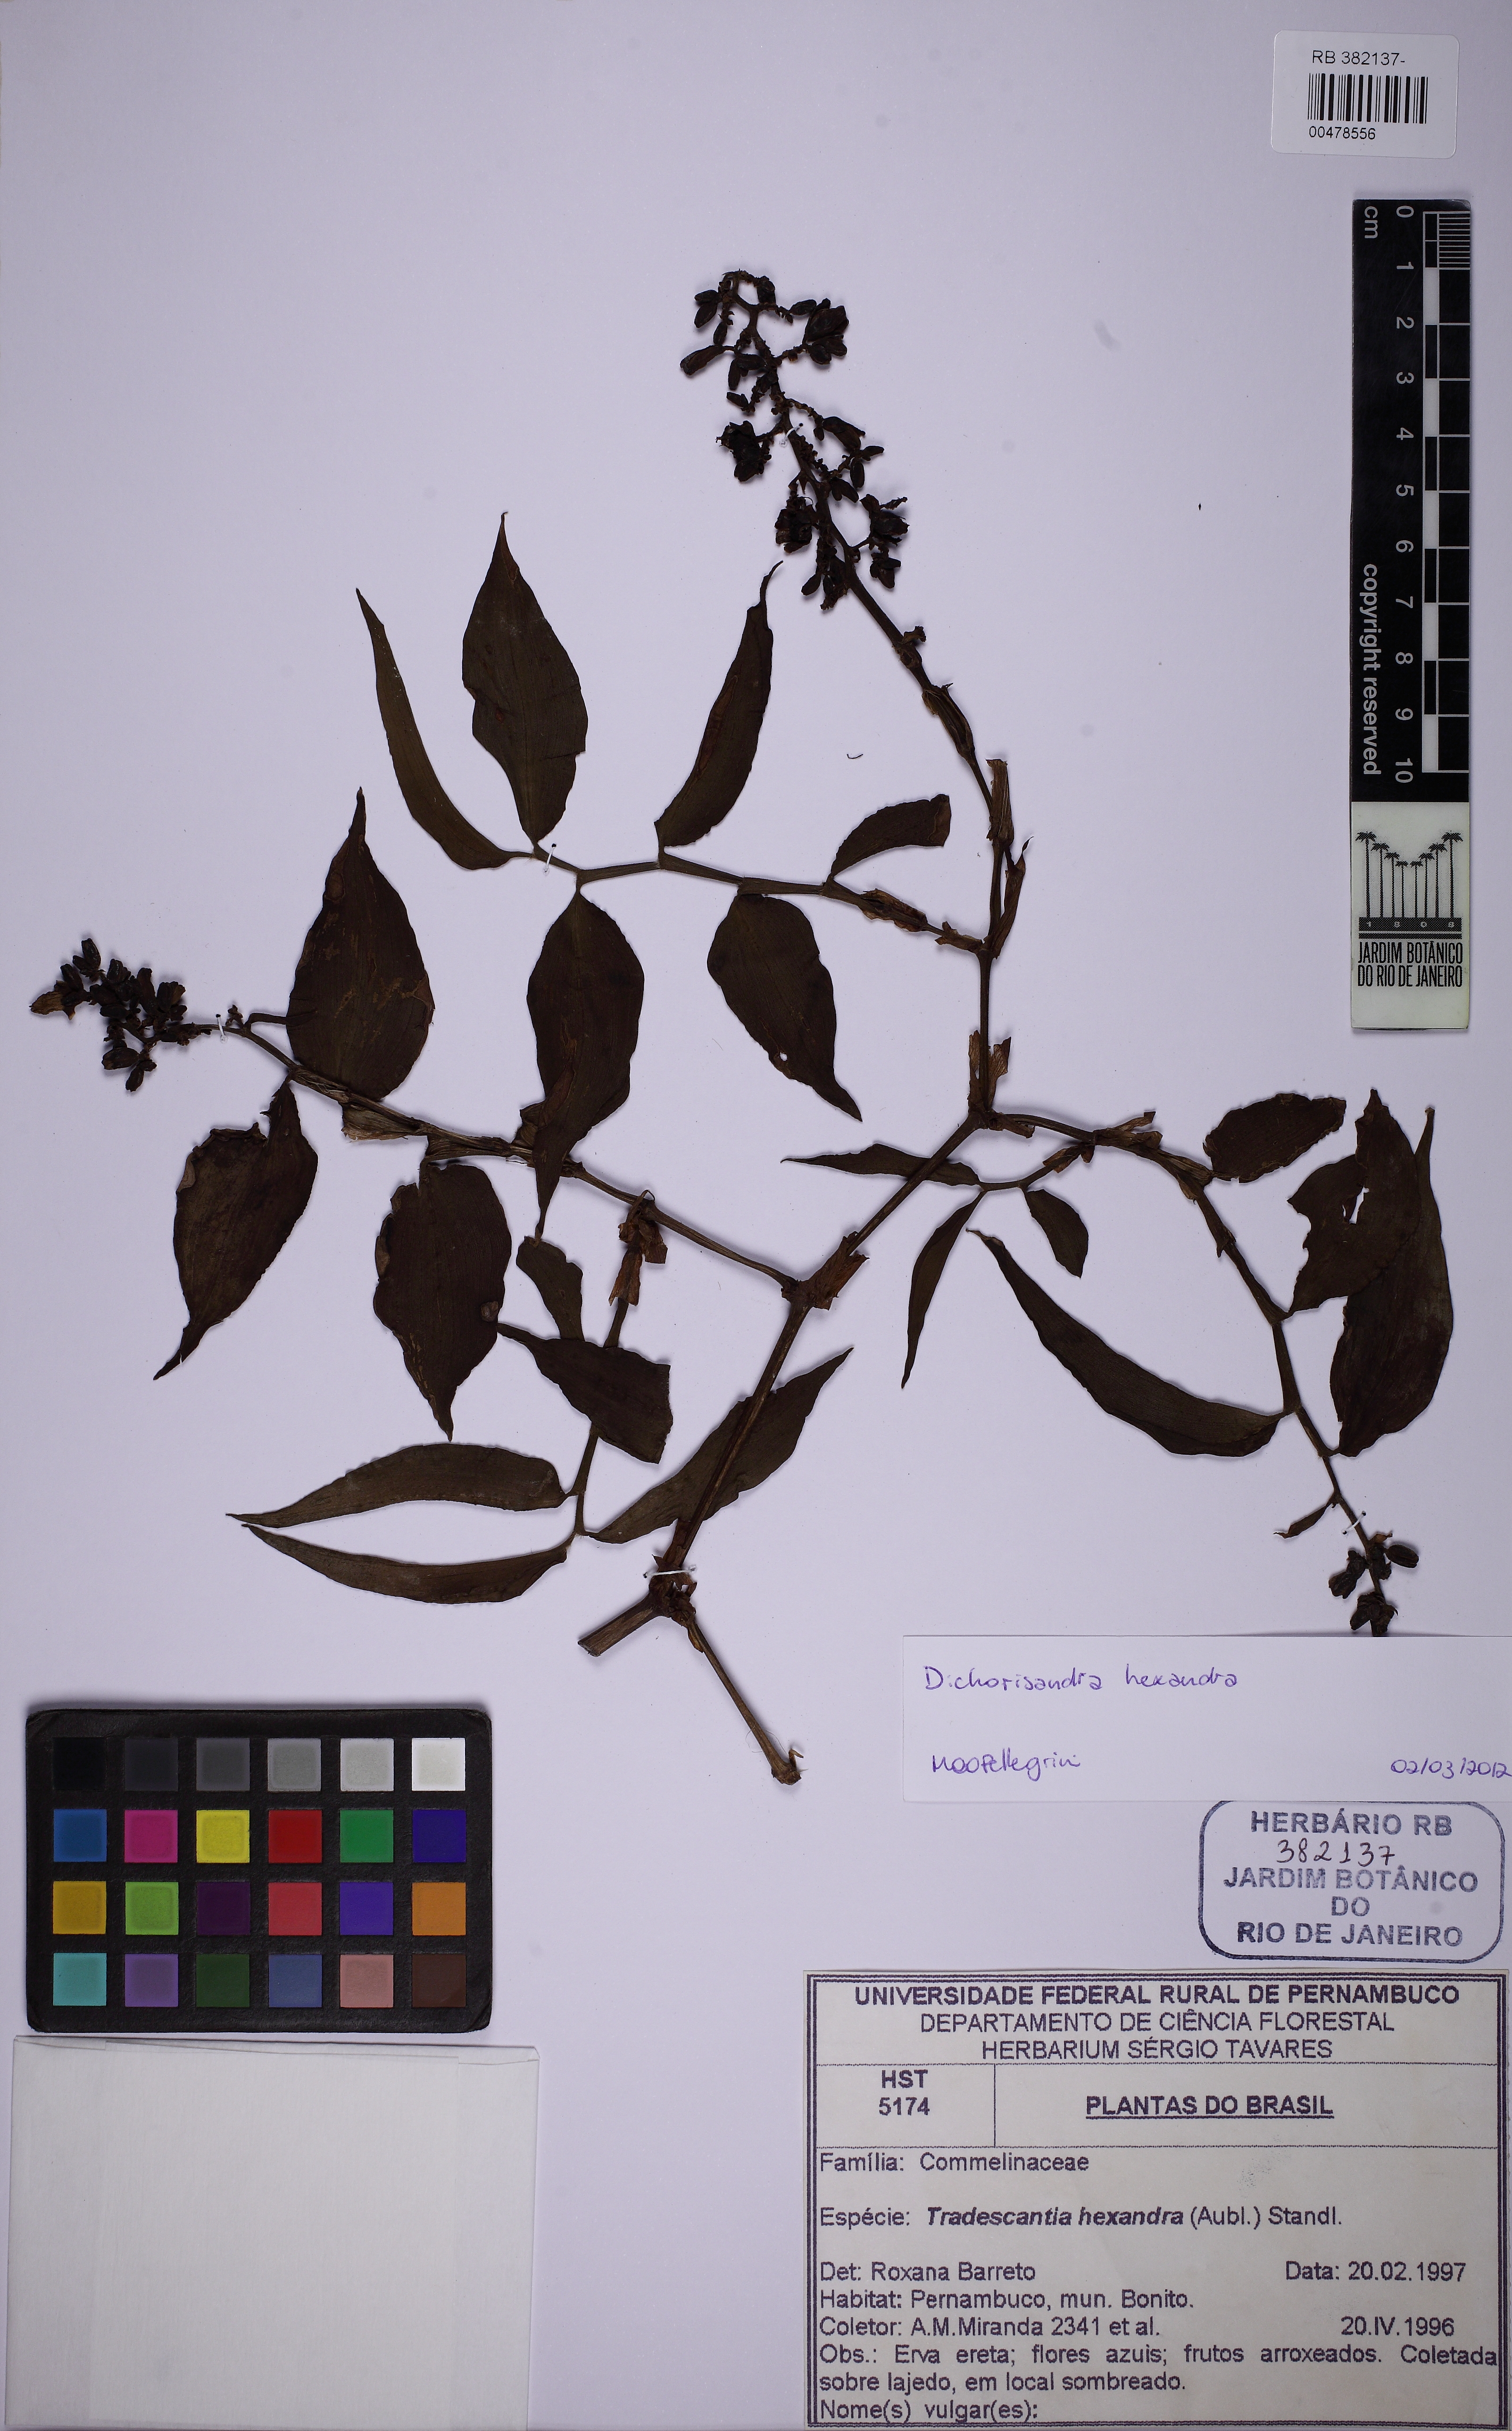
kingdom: Plantae
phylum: Tracheophyta
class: Liliopsida
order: Commelinales
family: Commelinaceae
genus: Dichorisandra
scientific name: Dichorisandra hexandra
